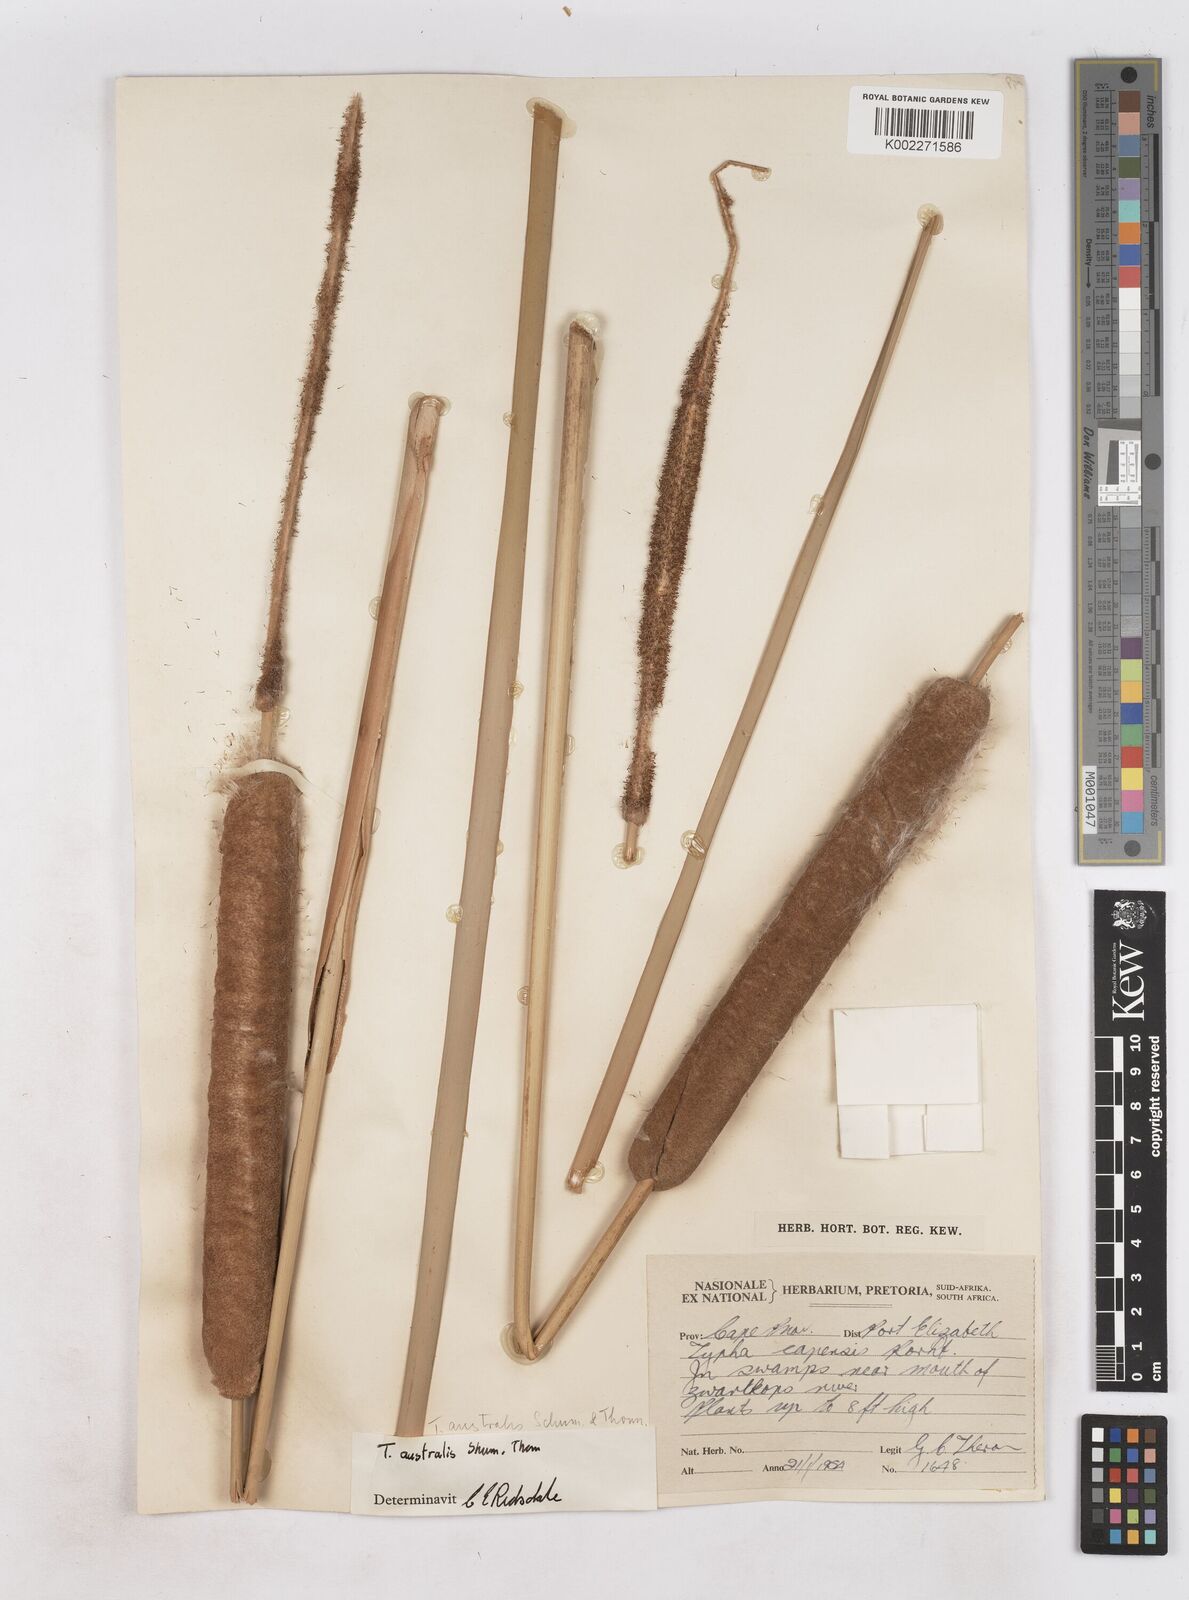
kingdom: Plantae
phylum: Tracheophyta
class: Liliopsida
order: Poales
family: Typhaceae
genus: Typha
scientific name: Typha domingensis
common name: Southern cattail
